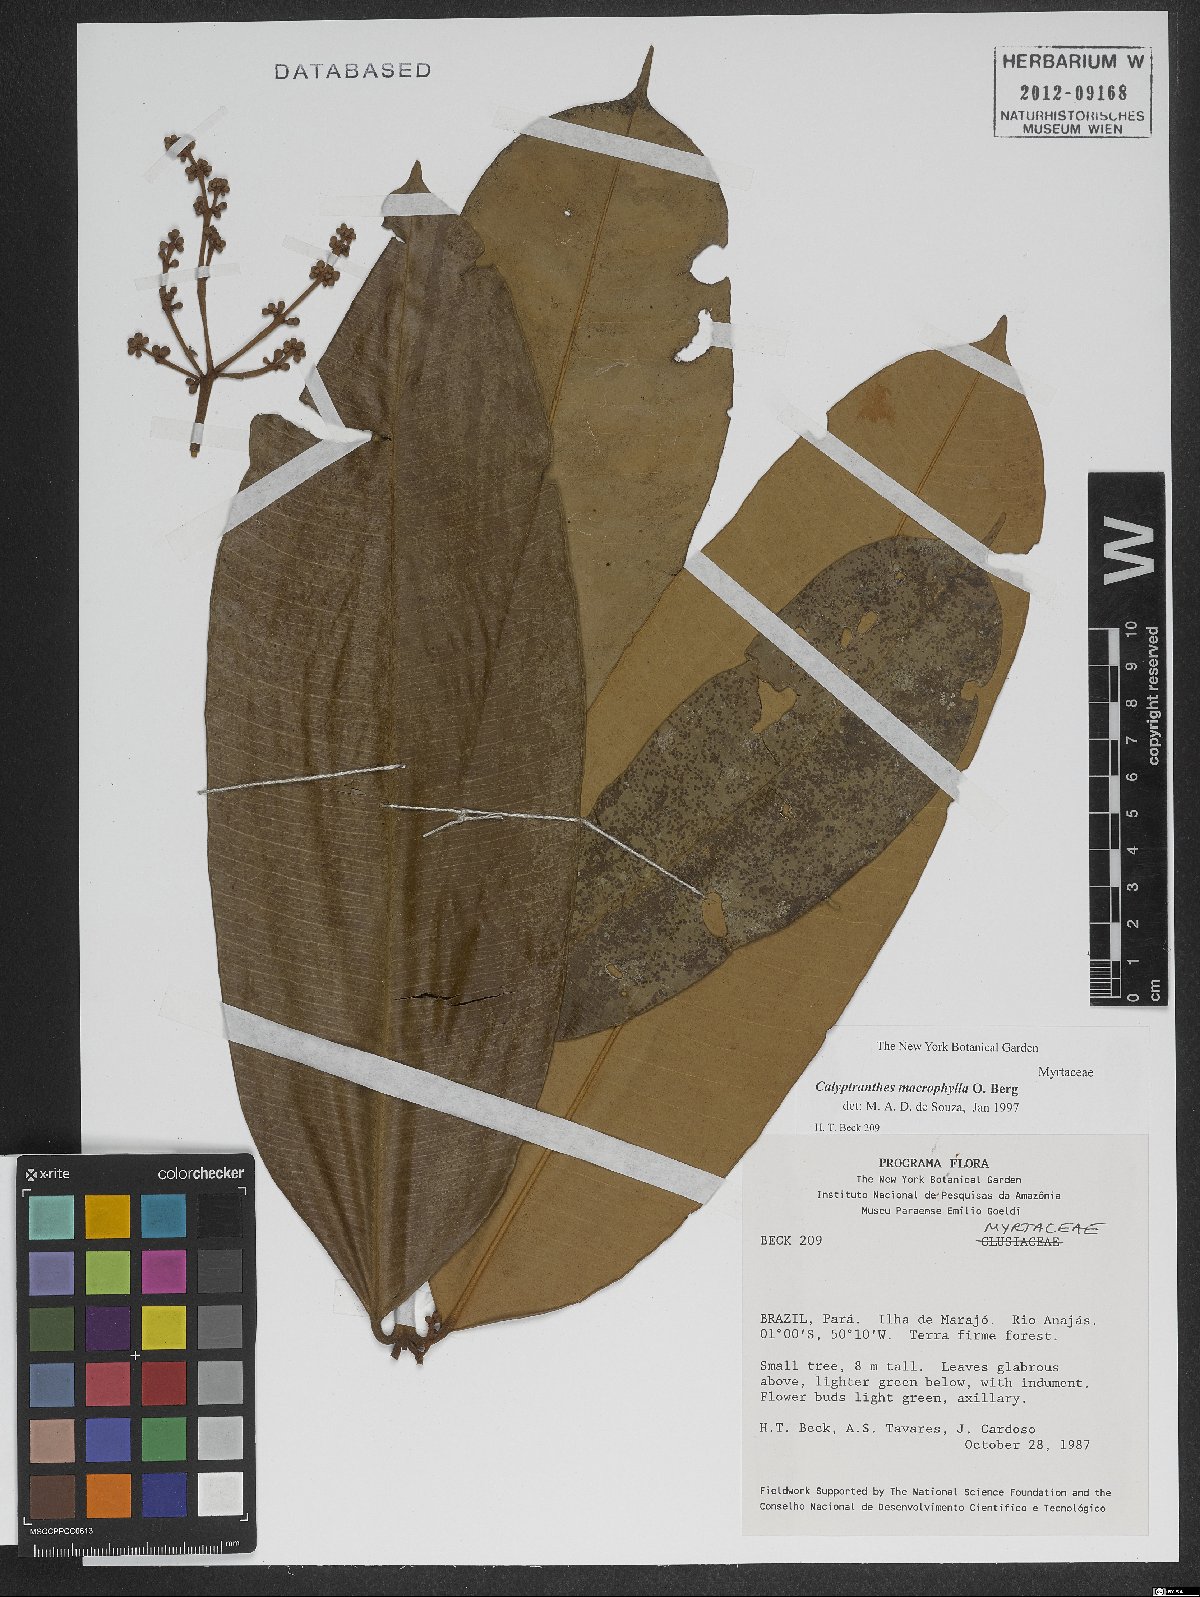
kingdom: Plantae
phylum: Tracheophyta
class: Magnoliopsida
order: Myrtales
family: Myrtaceae
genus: Myrcia
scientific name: Myrcia neomacrophylla
